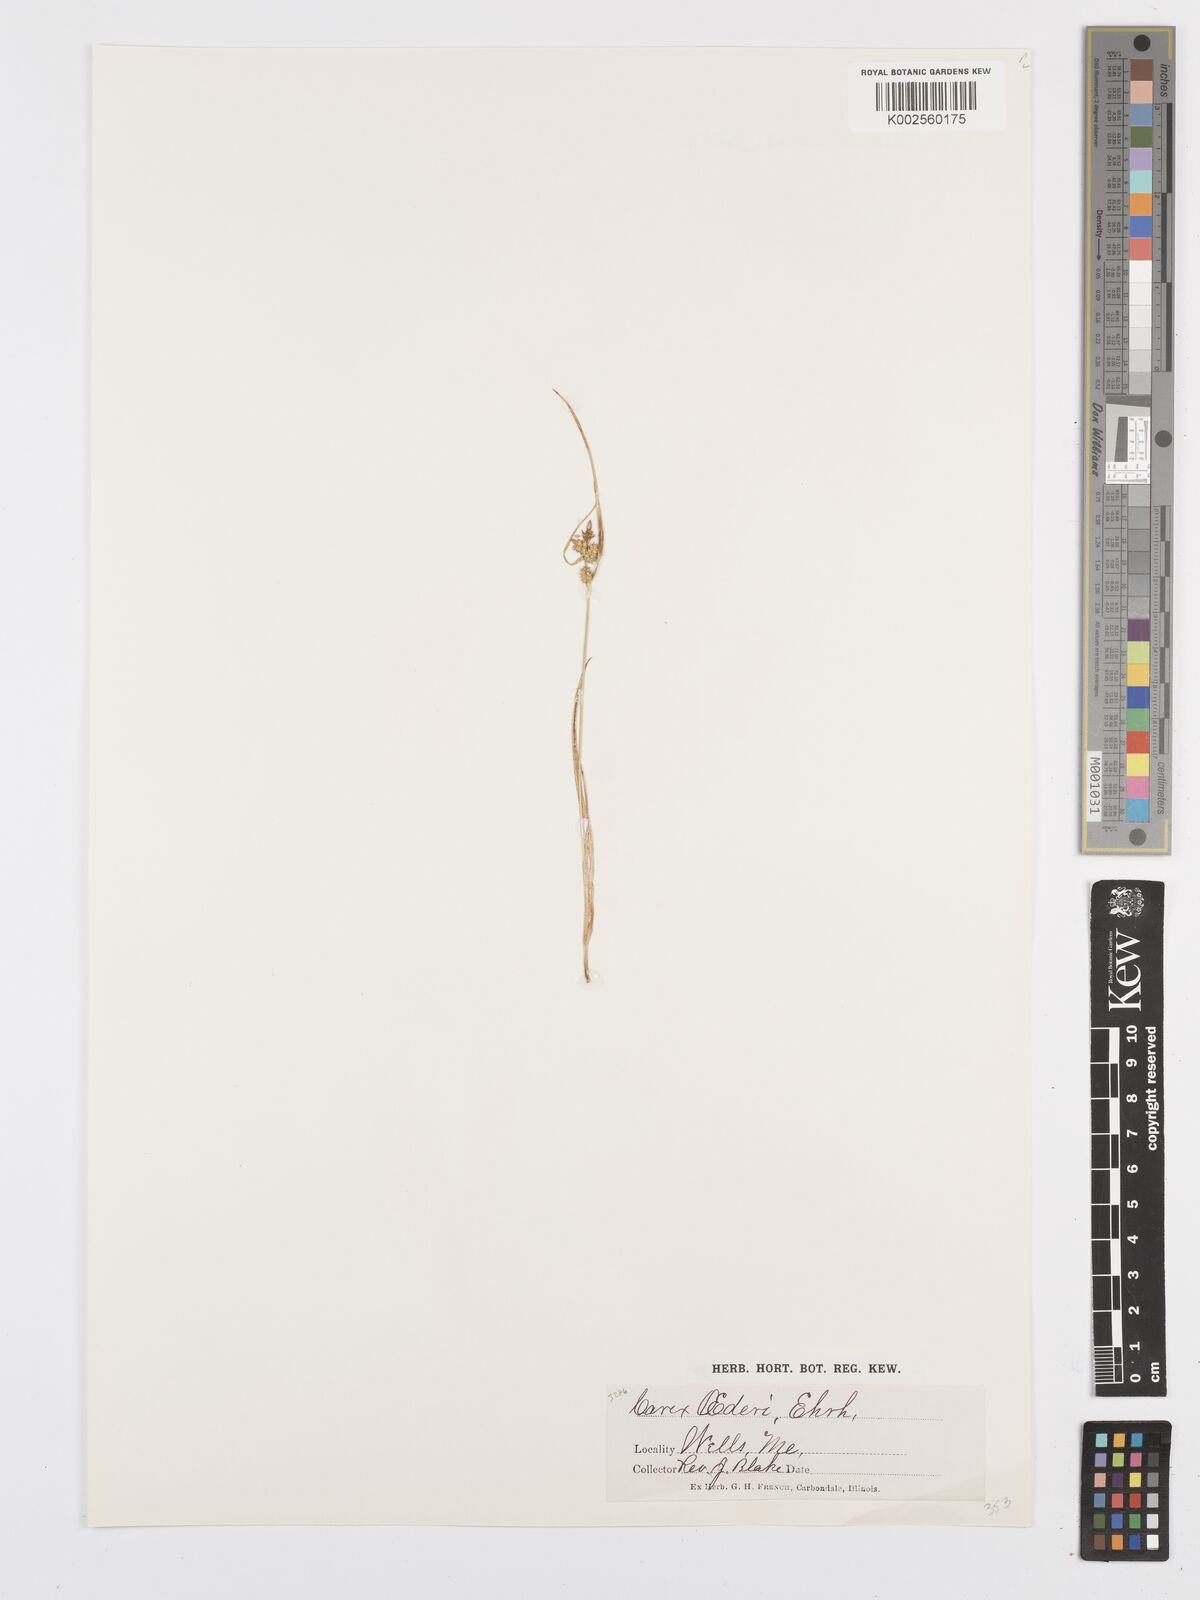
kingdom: Plantae
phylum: Tracheophyta
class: Liliopsida
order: Poales
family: Cyperaceae
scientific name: Cyperaceae
